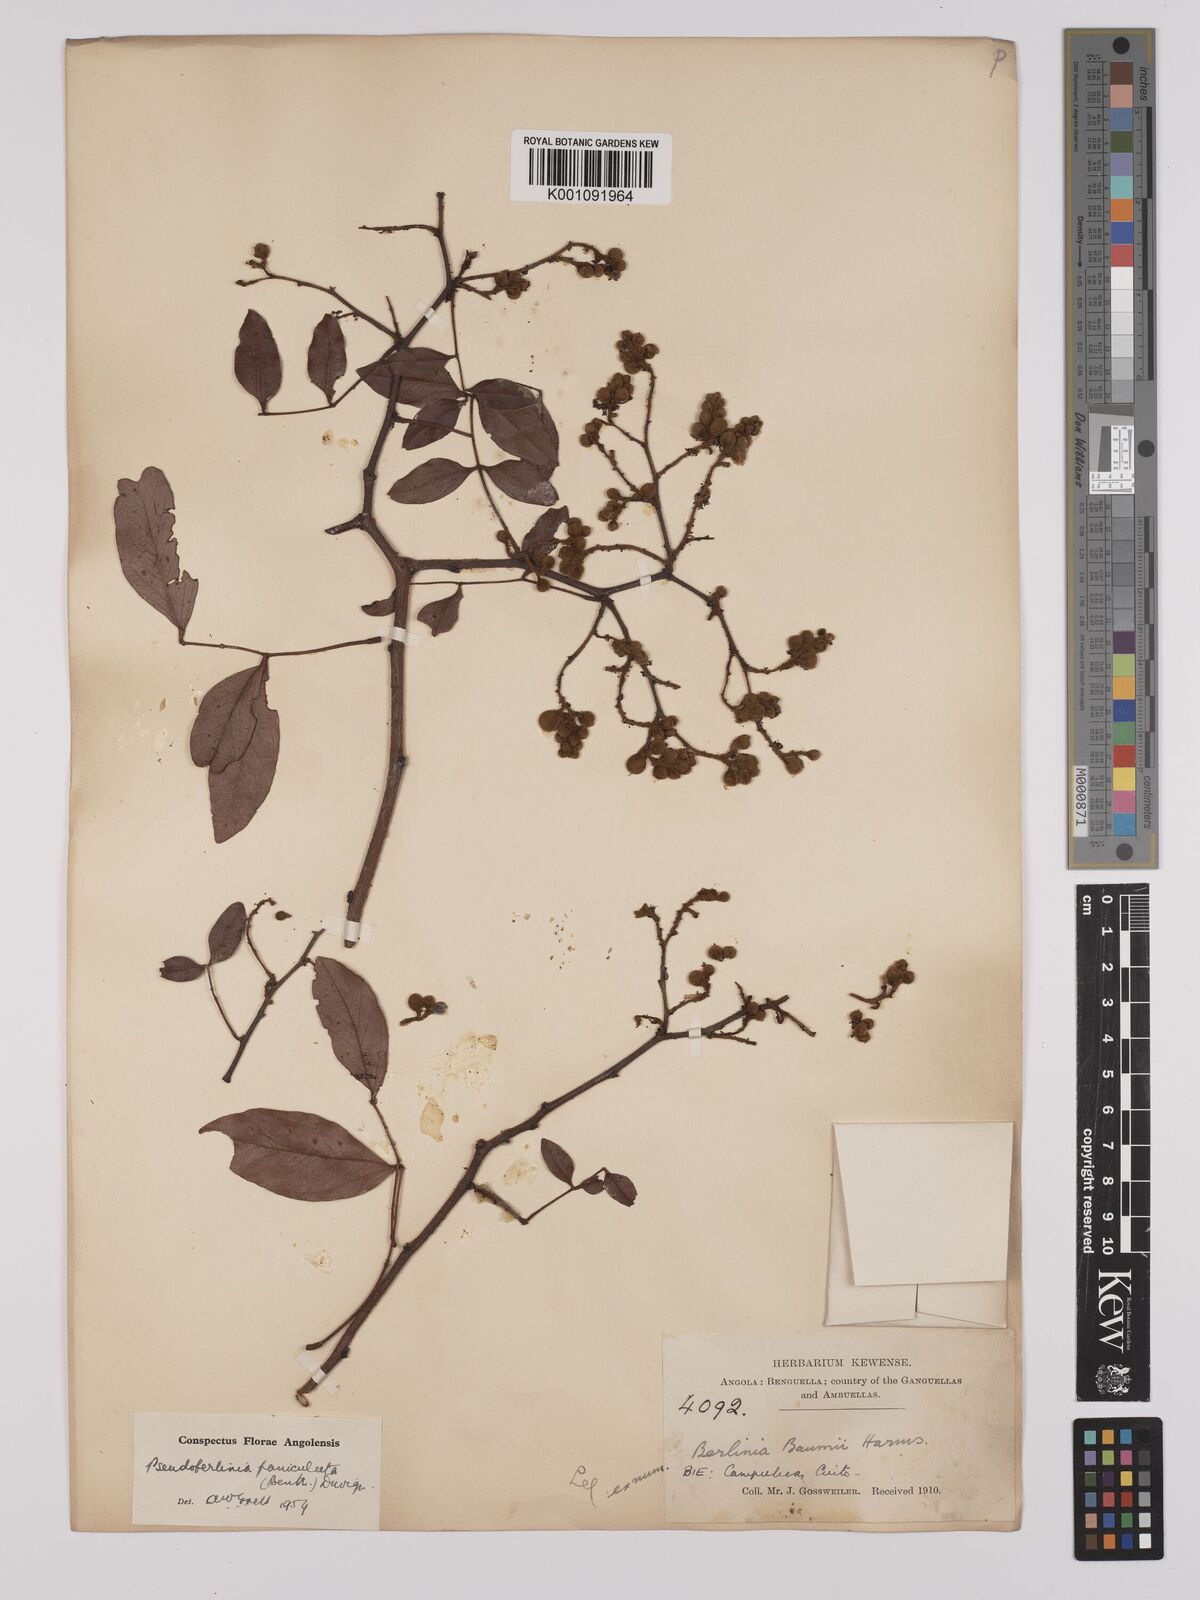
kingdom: Plantae
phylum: Tracheophyta
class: Magnoliopsida
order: Fabales
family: Fabaceae
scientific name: Fabaceae
